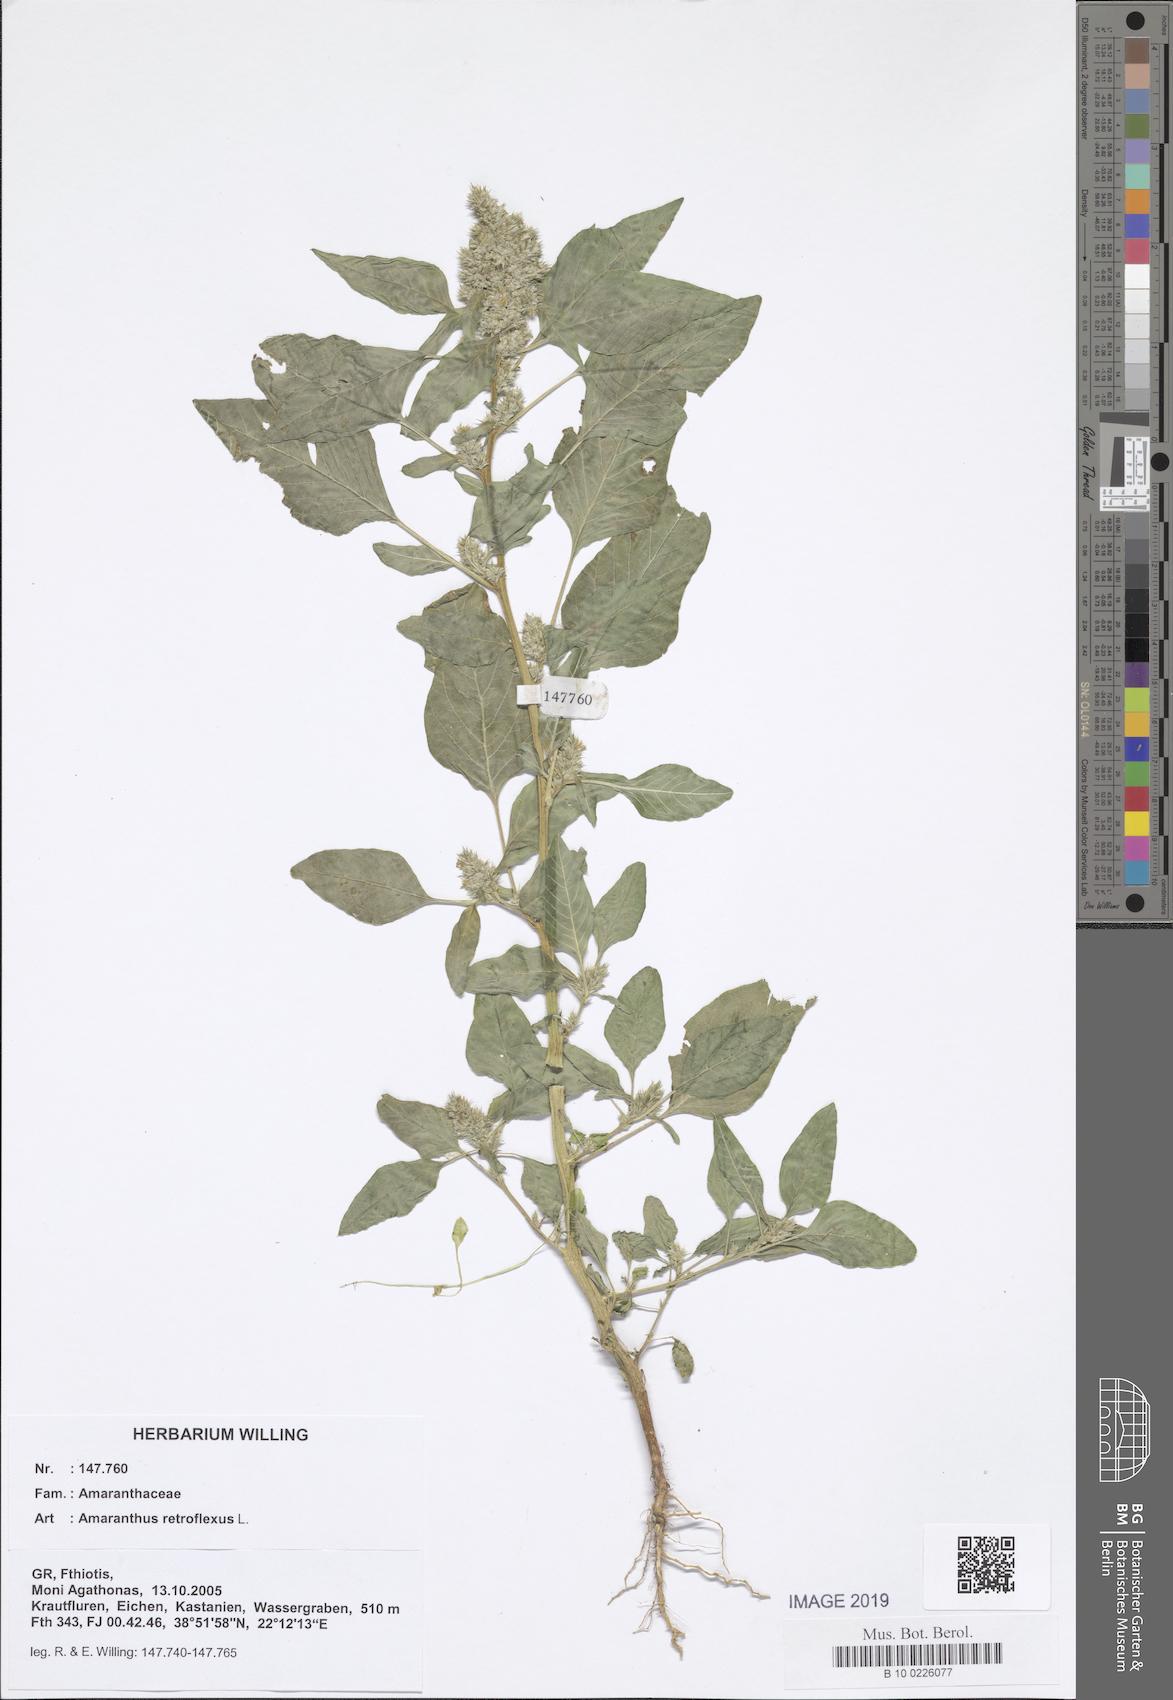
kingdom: Plantae
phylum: Tracheophyta
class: Magnoliopsida
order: Caryophyllales
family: Amaranthaceae
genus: Amaranthus
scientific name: Amaranthus retroflexus
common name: Redroot amaranth
